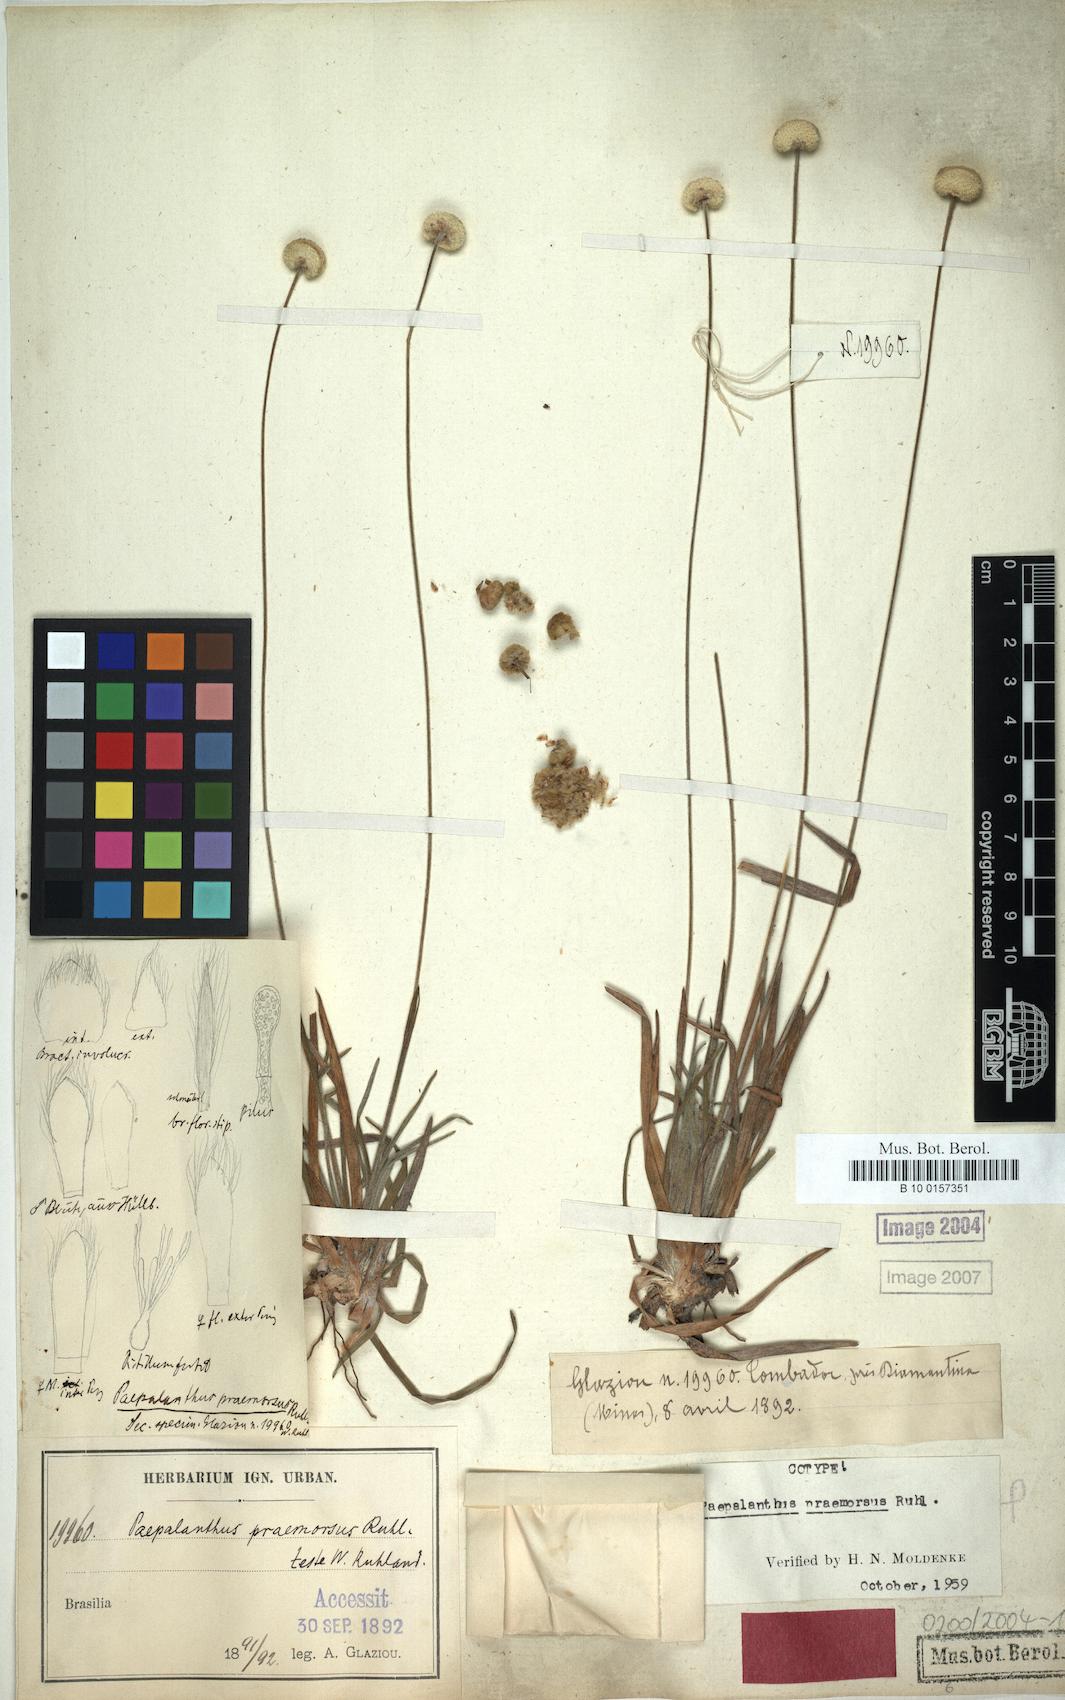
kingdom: Plantae
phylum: Tracheophyta
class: Liliopsida
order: Poales
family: Eriocaulaceae
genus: Paepalanthus
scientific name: Paepalanthus praemorsus
